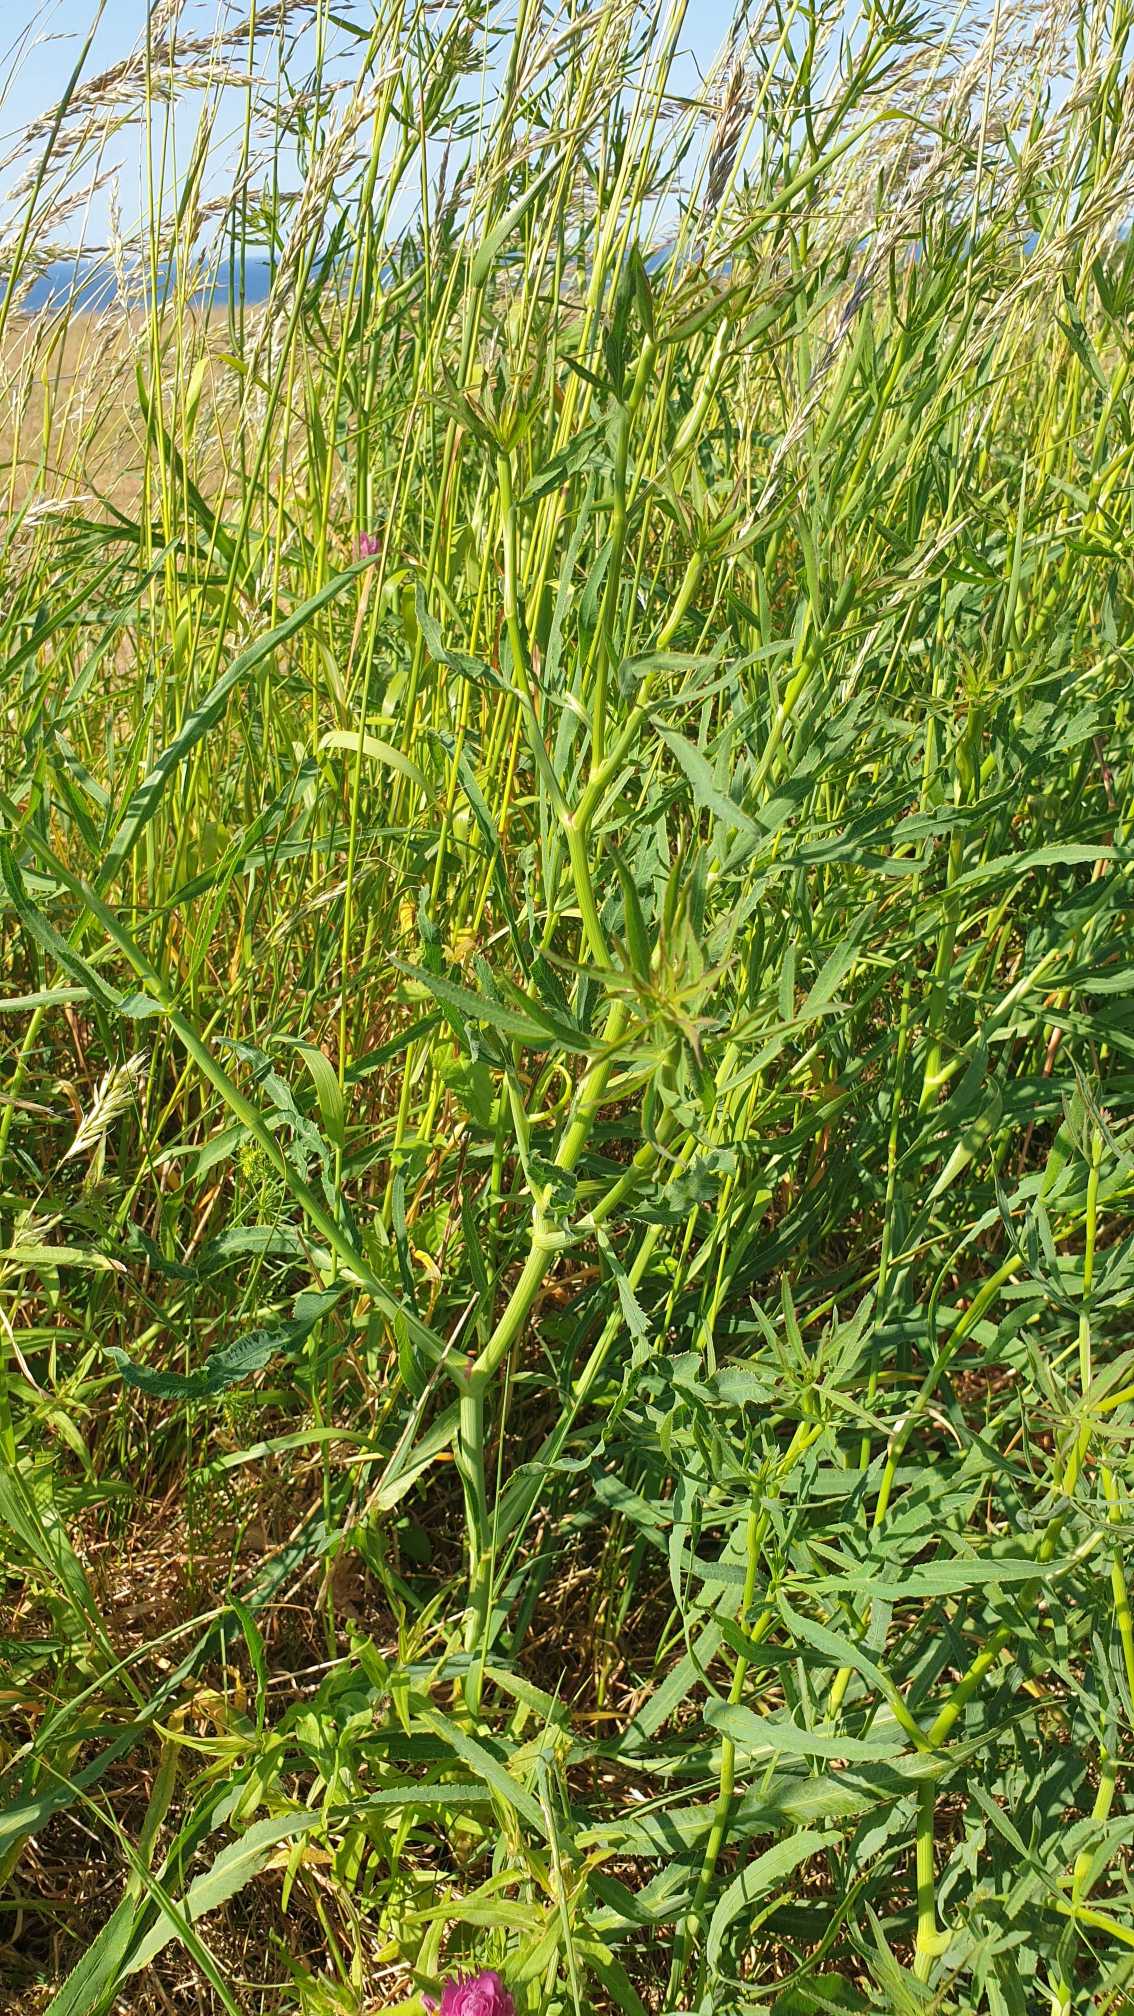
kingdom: Plantae
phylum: Tracheophyta
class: Magnoliopsida
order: Apiales
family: Apiaceae
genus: Falcaria
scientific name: Falcaria vulgaris
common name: Seglblad
